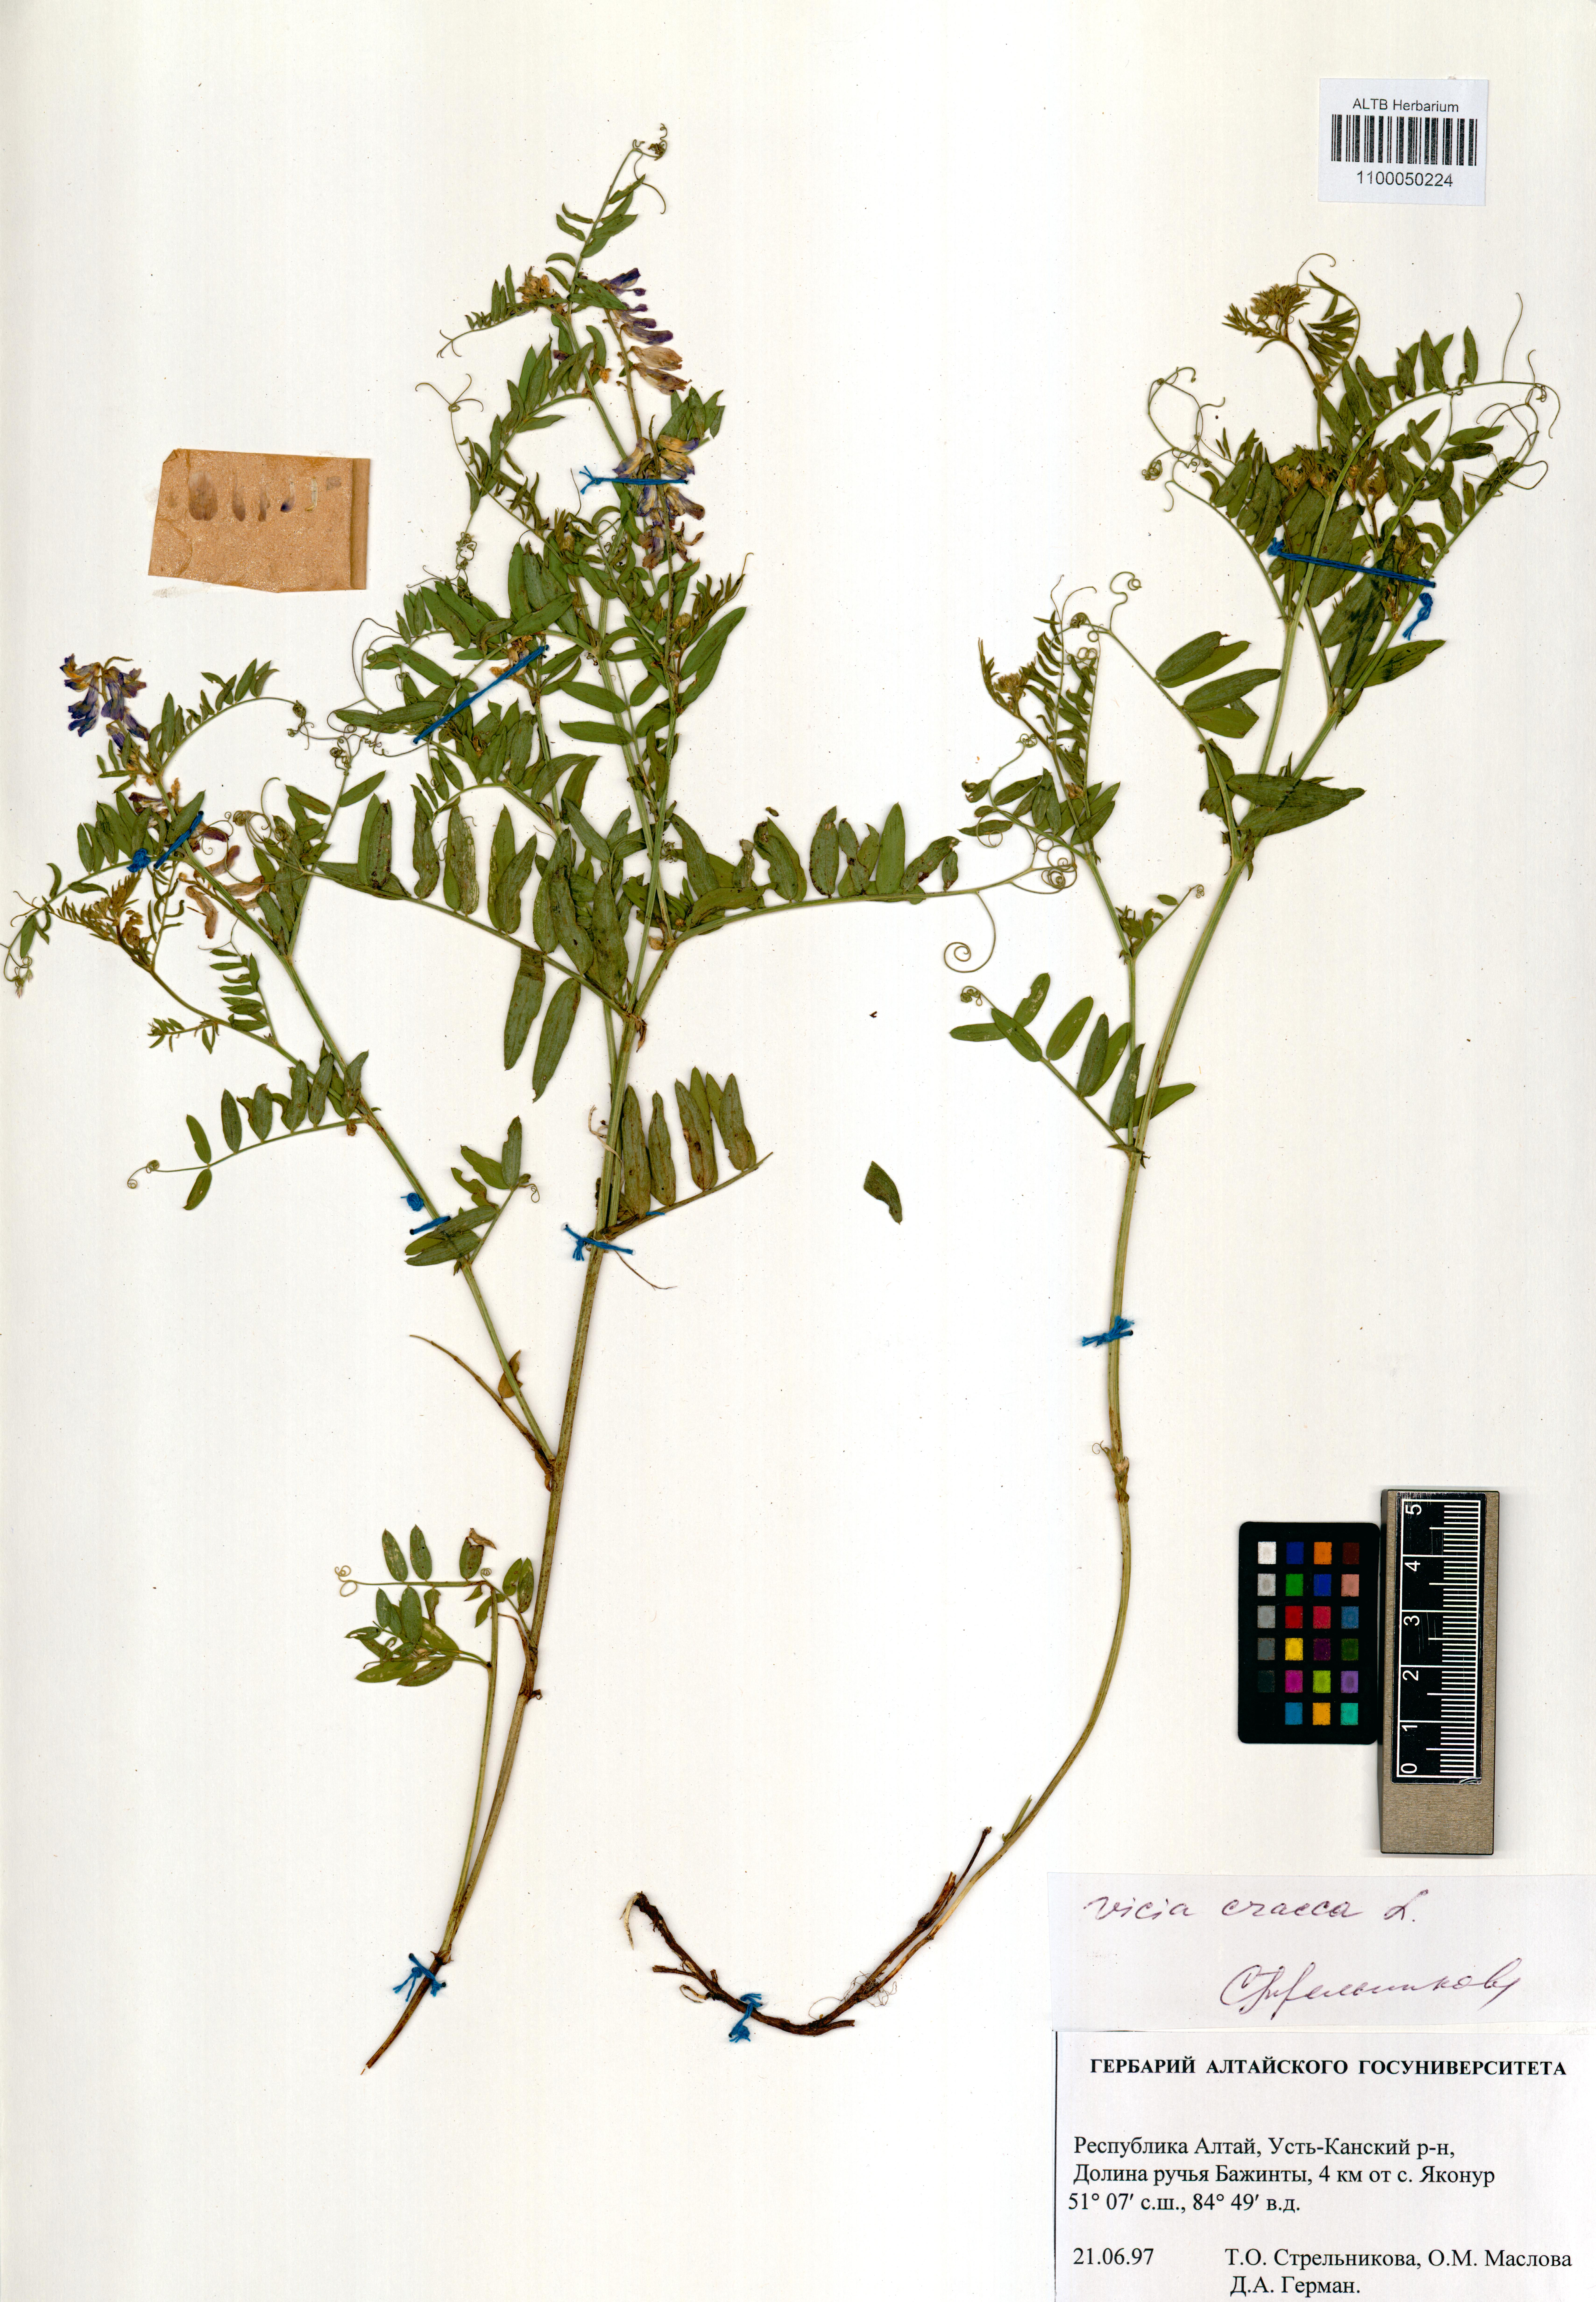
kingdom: Plantae
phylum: Tracheophyta
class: Magnoliopsida
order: Fabales
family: Fabaceae
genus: Vicia
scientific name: Vicia cracca
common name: Bird vetch
